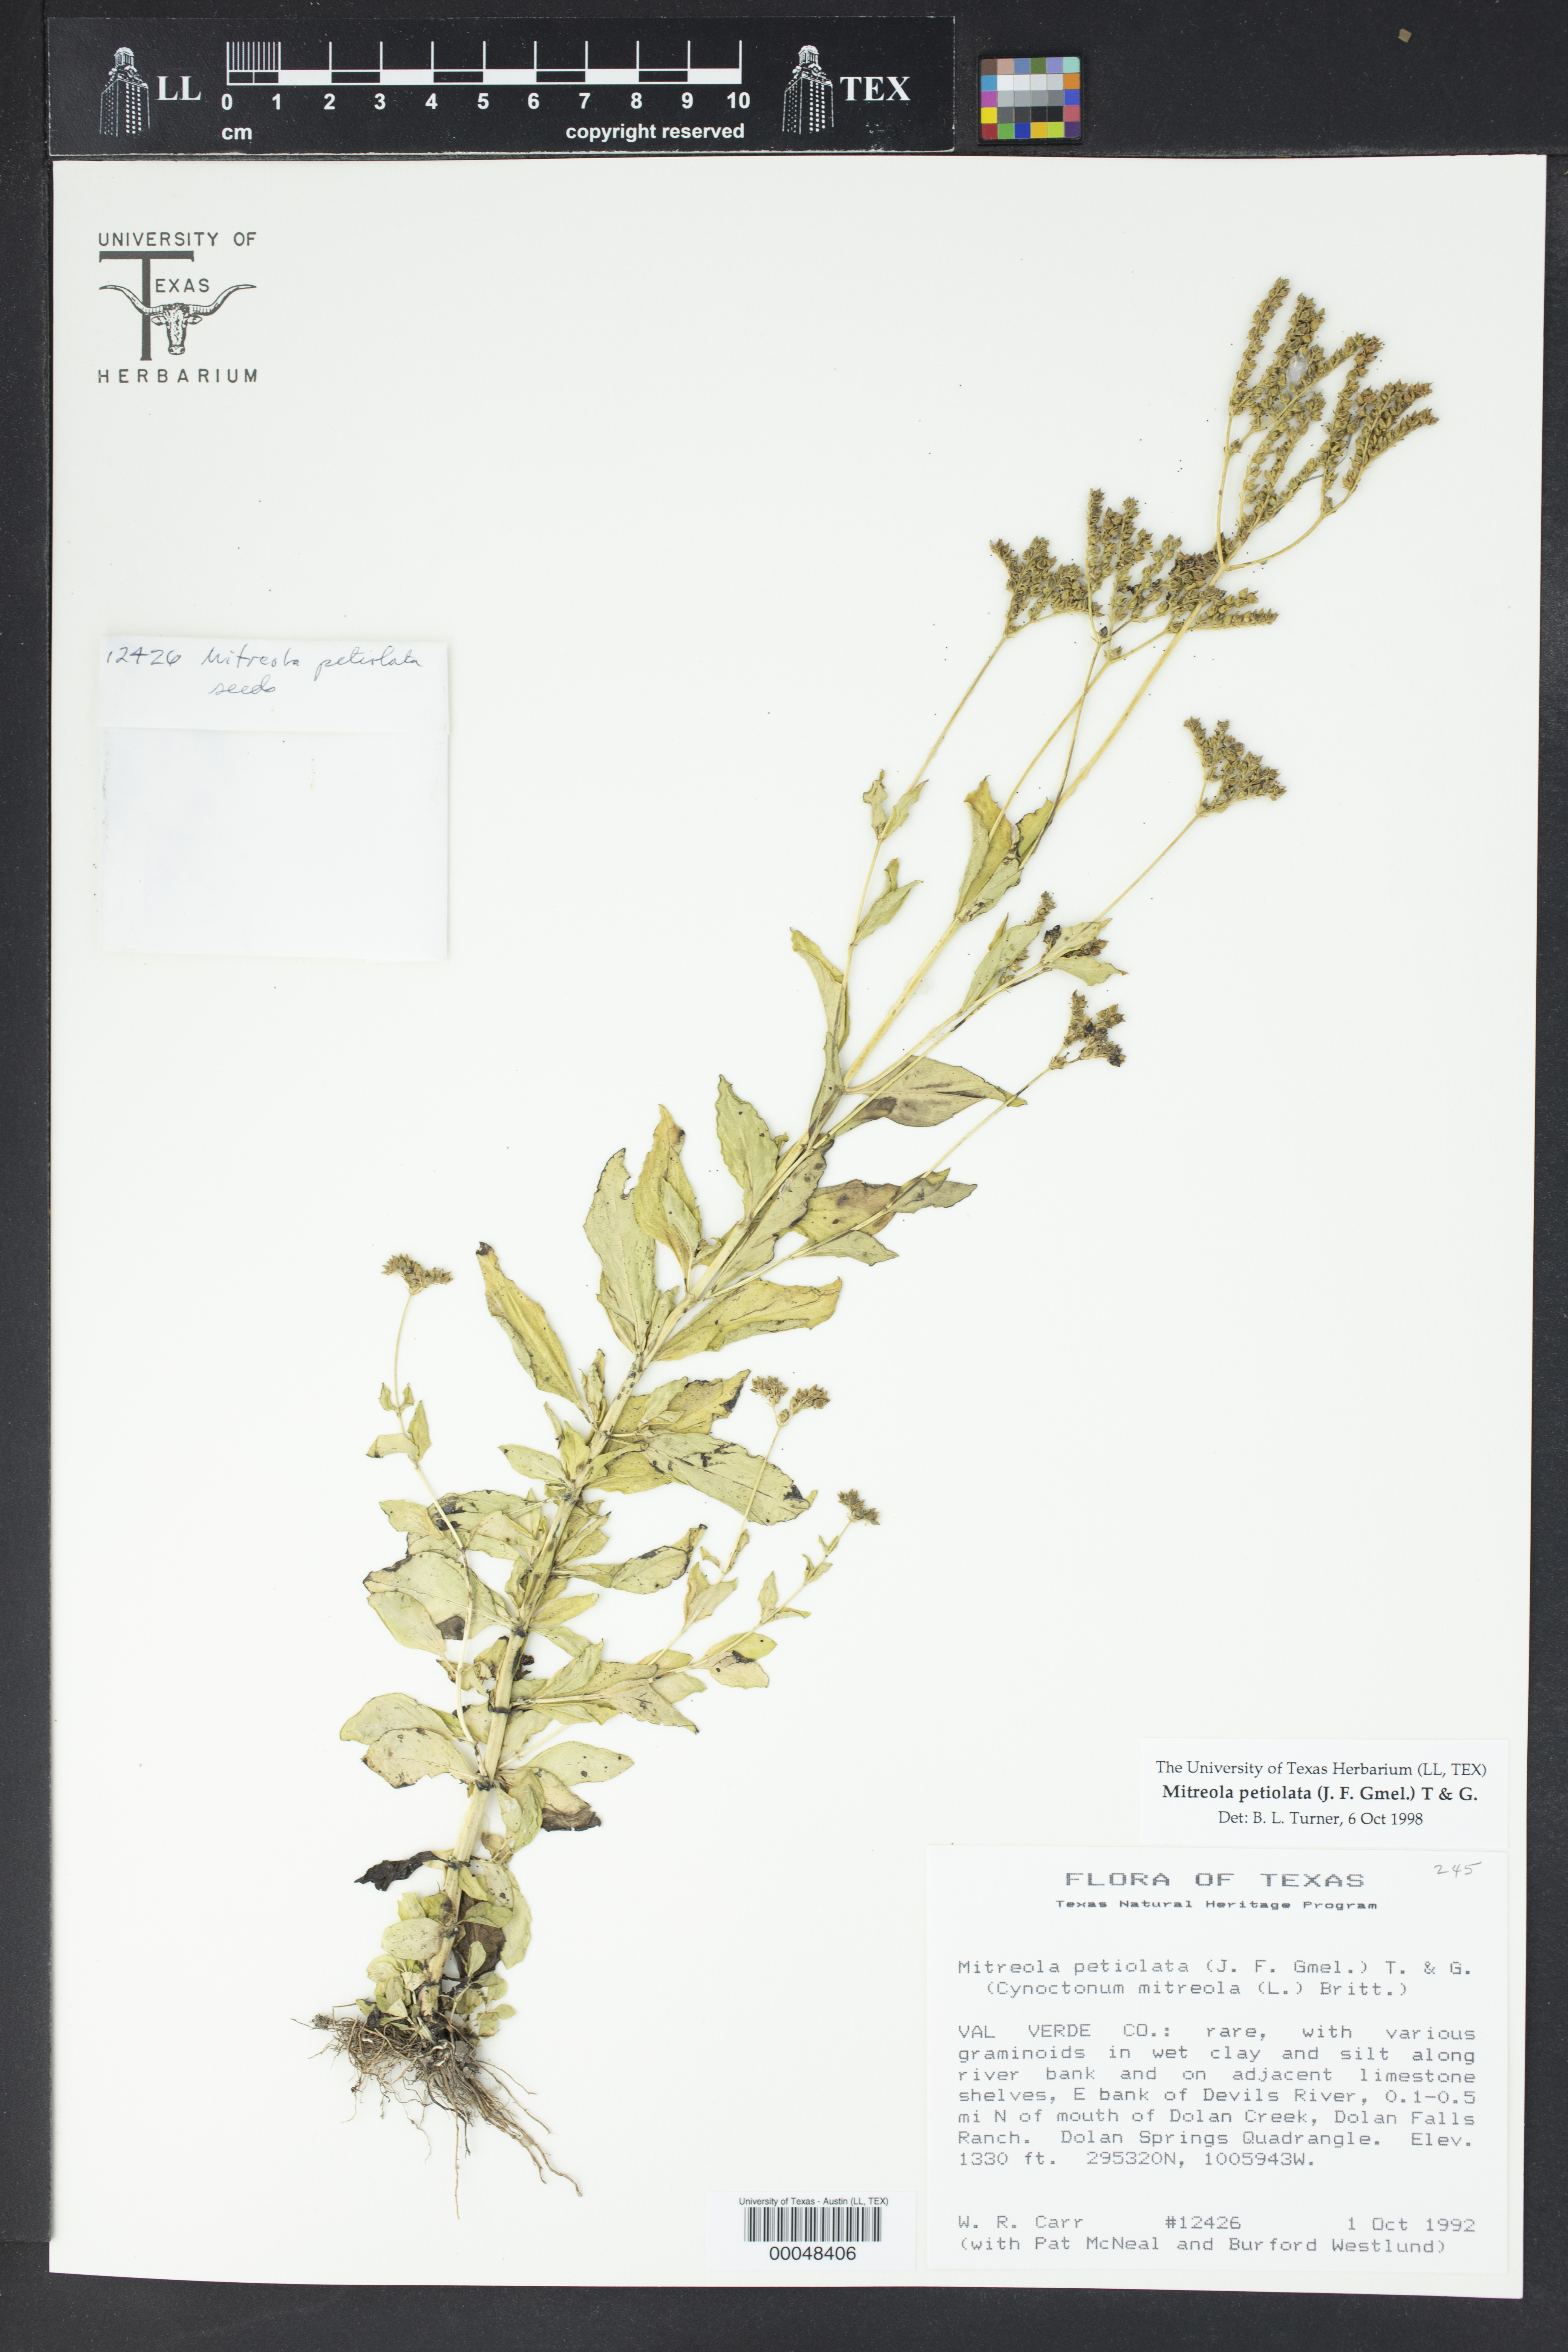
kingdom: Plantae
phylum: Tracheophyta
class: Magnoliopsida
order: Gentianales
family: Loganiaceae
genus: Mitreola
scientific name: Mitreola petiolata
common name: Lax hornpod
